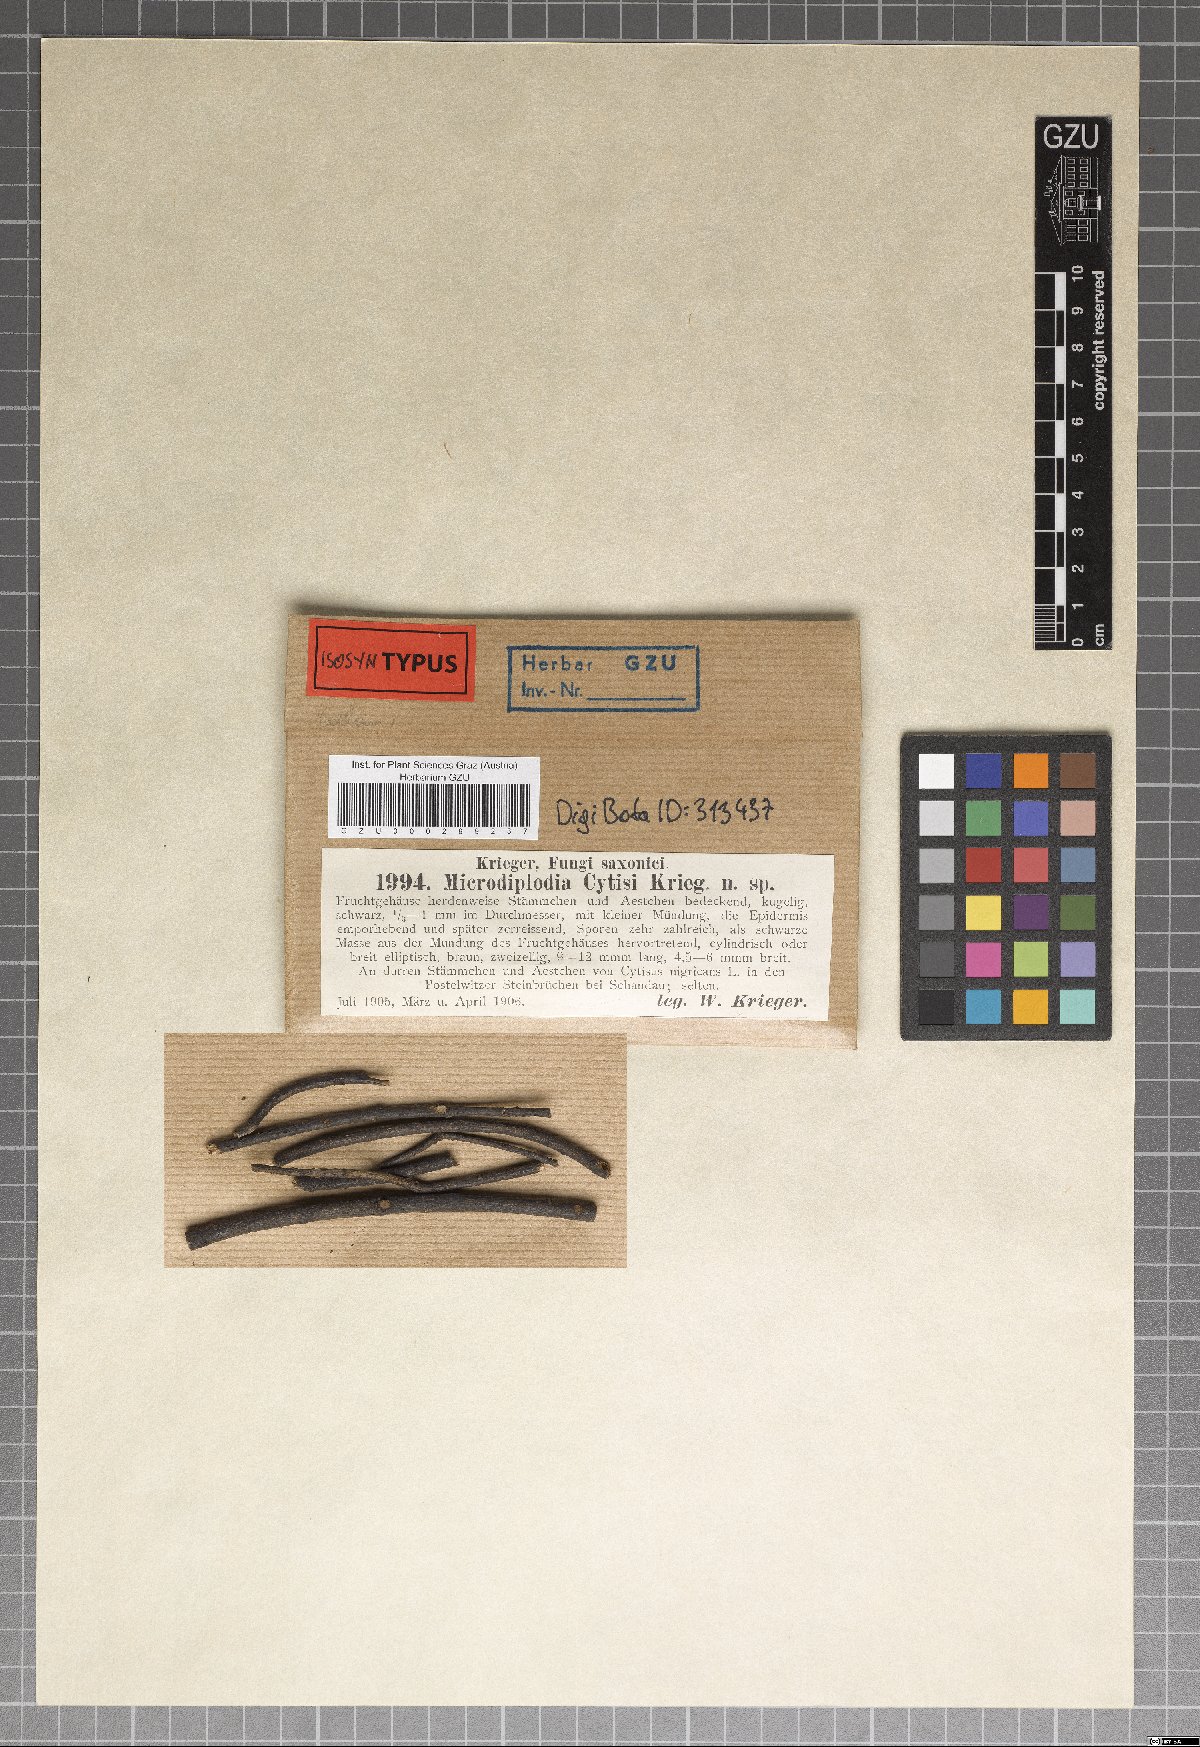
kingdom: Fungi
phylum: Ascomycota
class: Dothideomycetes
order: Botryosphaeriales
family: Botryosphaeriaceae
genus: Microdiplodia
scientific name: Microdiplodia
